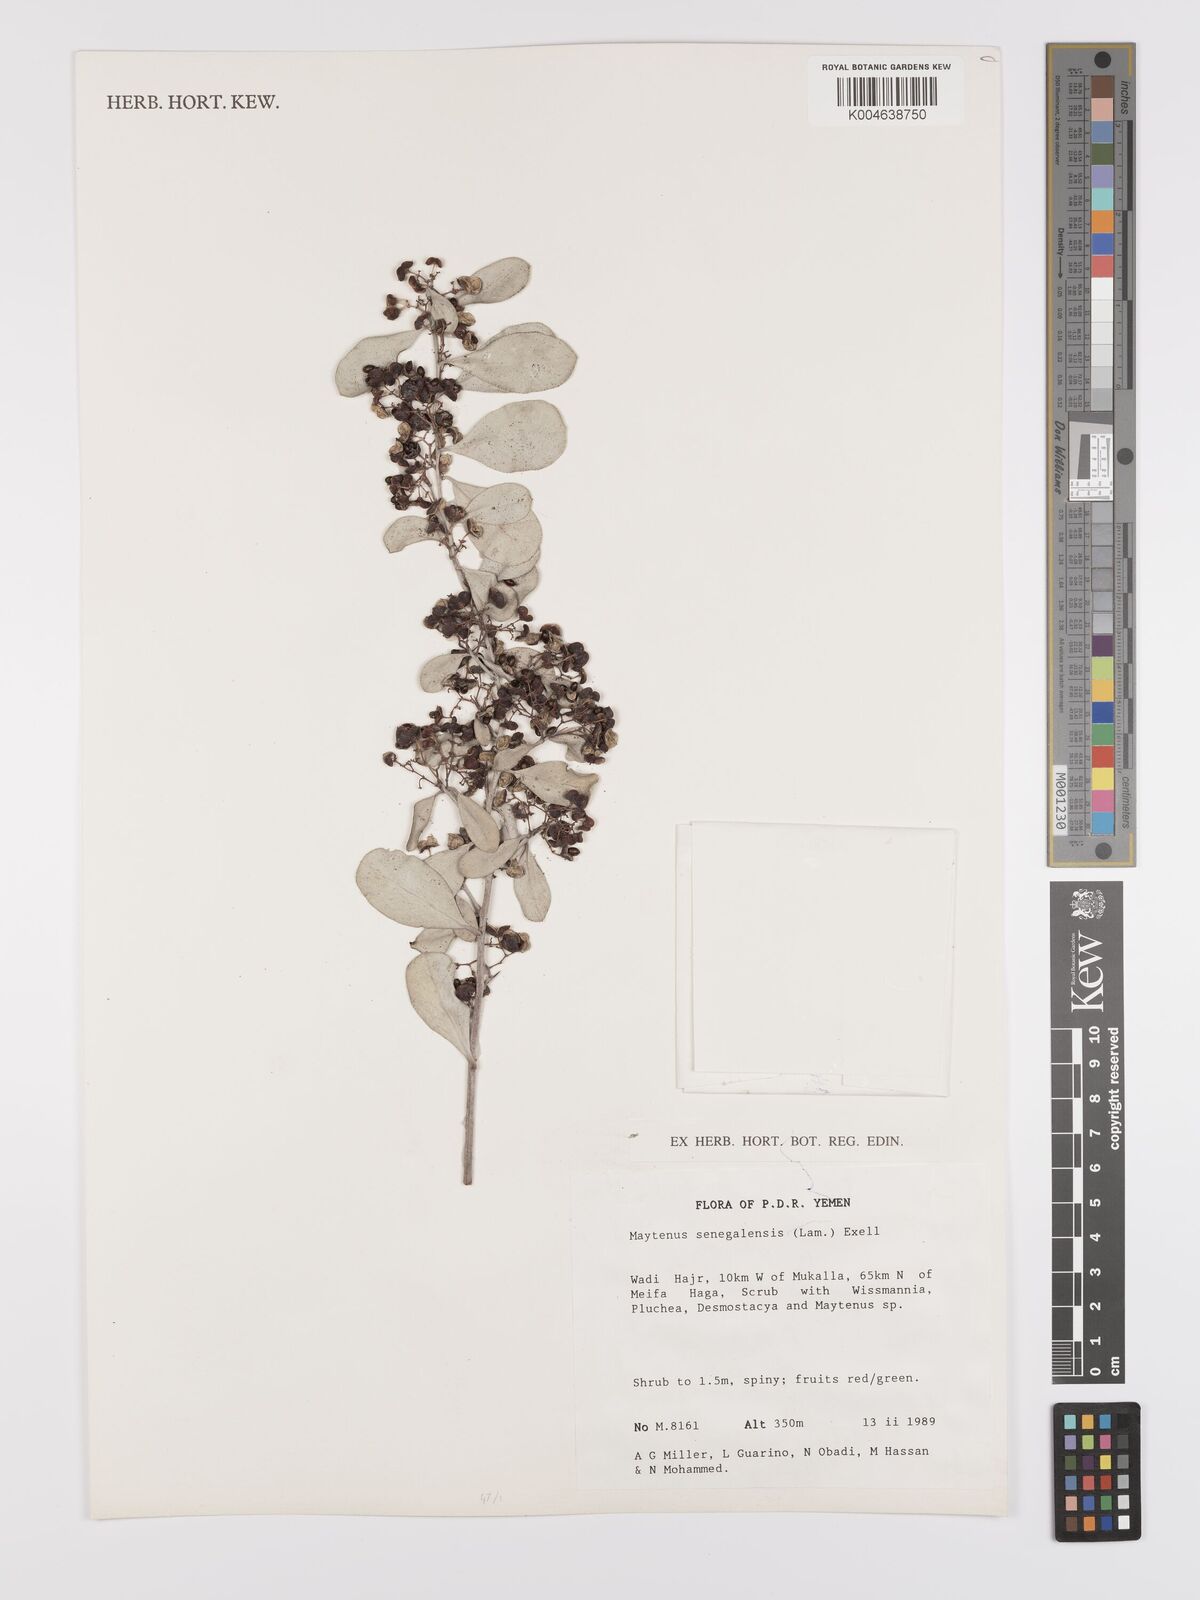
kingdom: Plantae
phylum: Tracheophyta
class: Magnoliopsida
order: Celastrales
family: Celastraceae
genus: Gymnosporia
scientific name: Gymnosporia senegalensis
